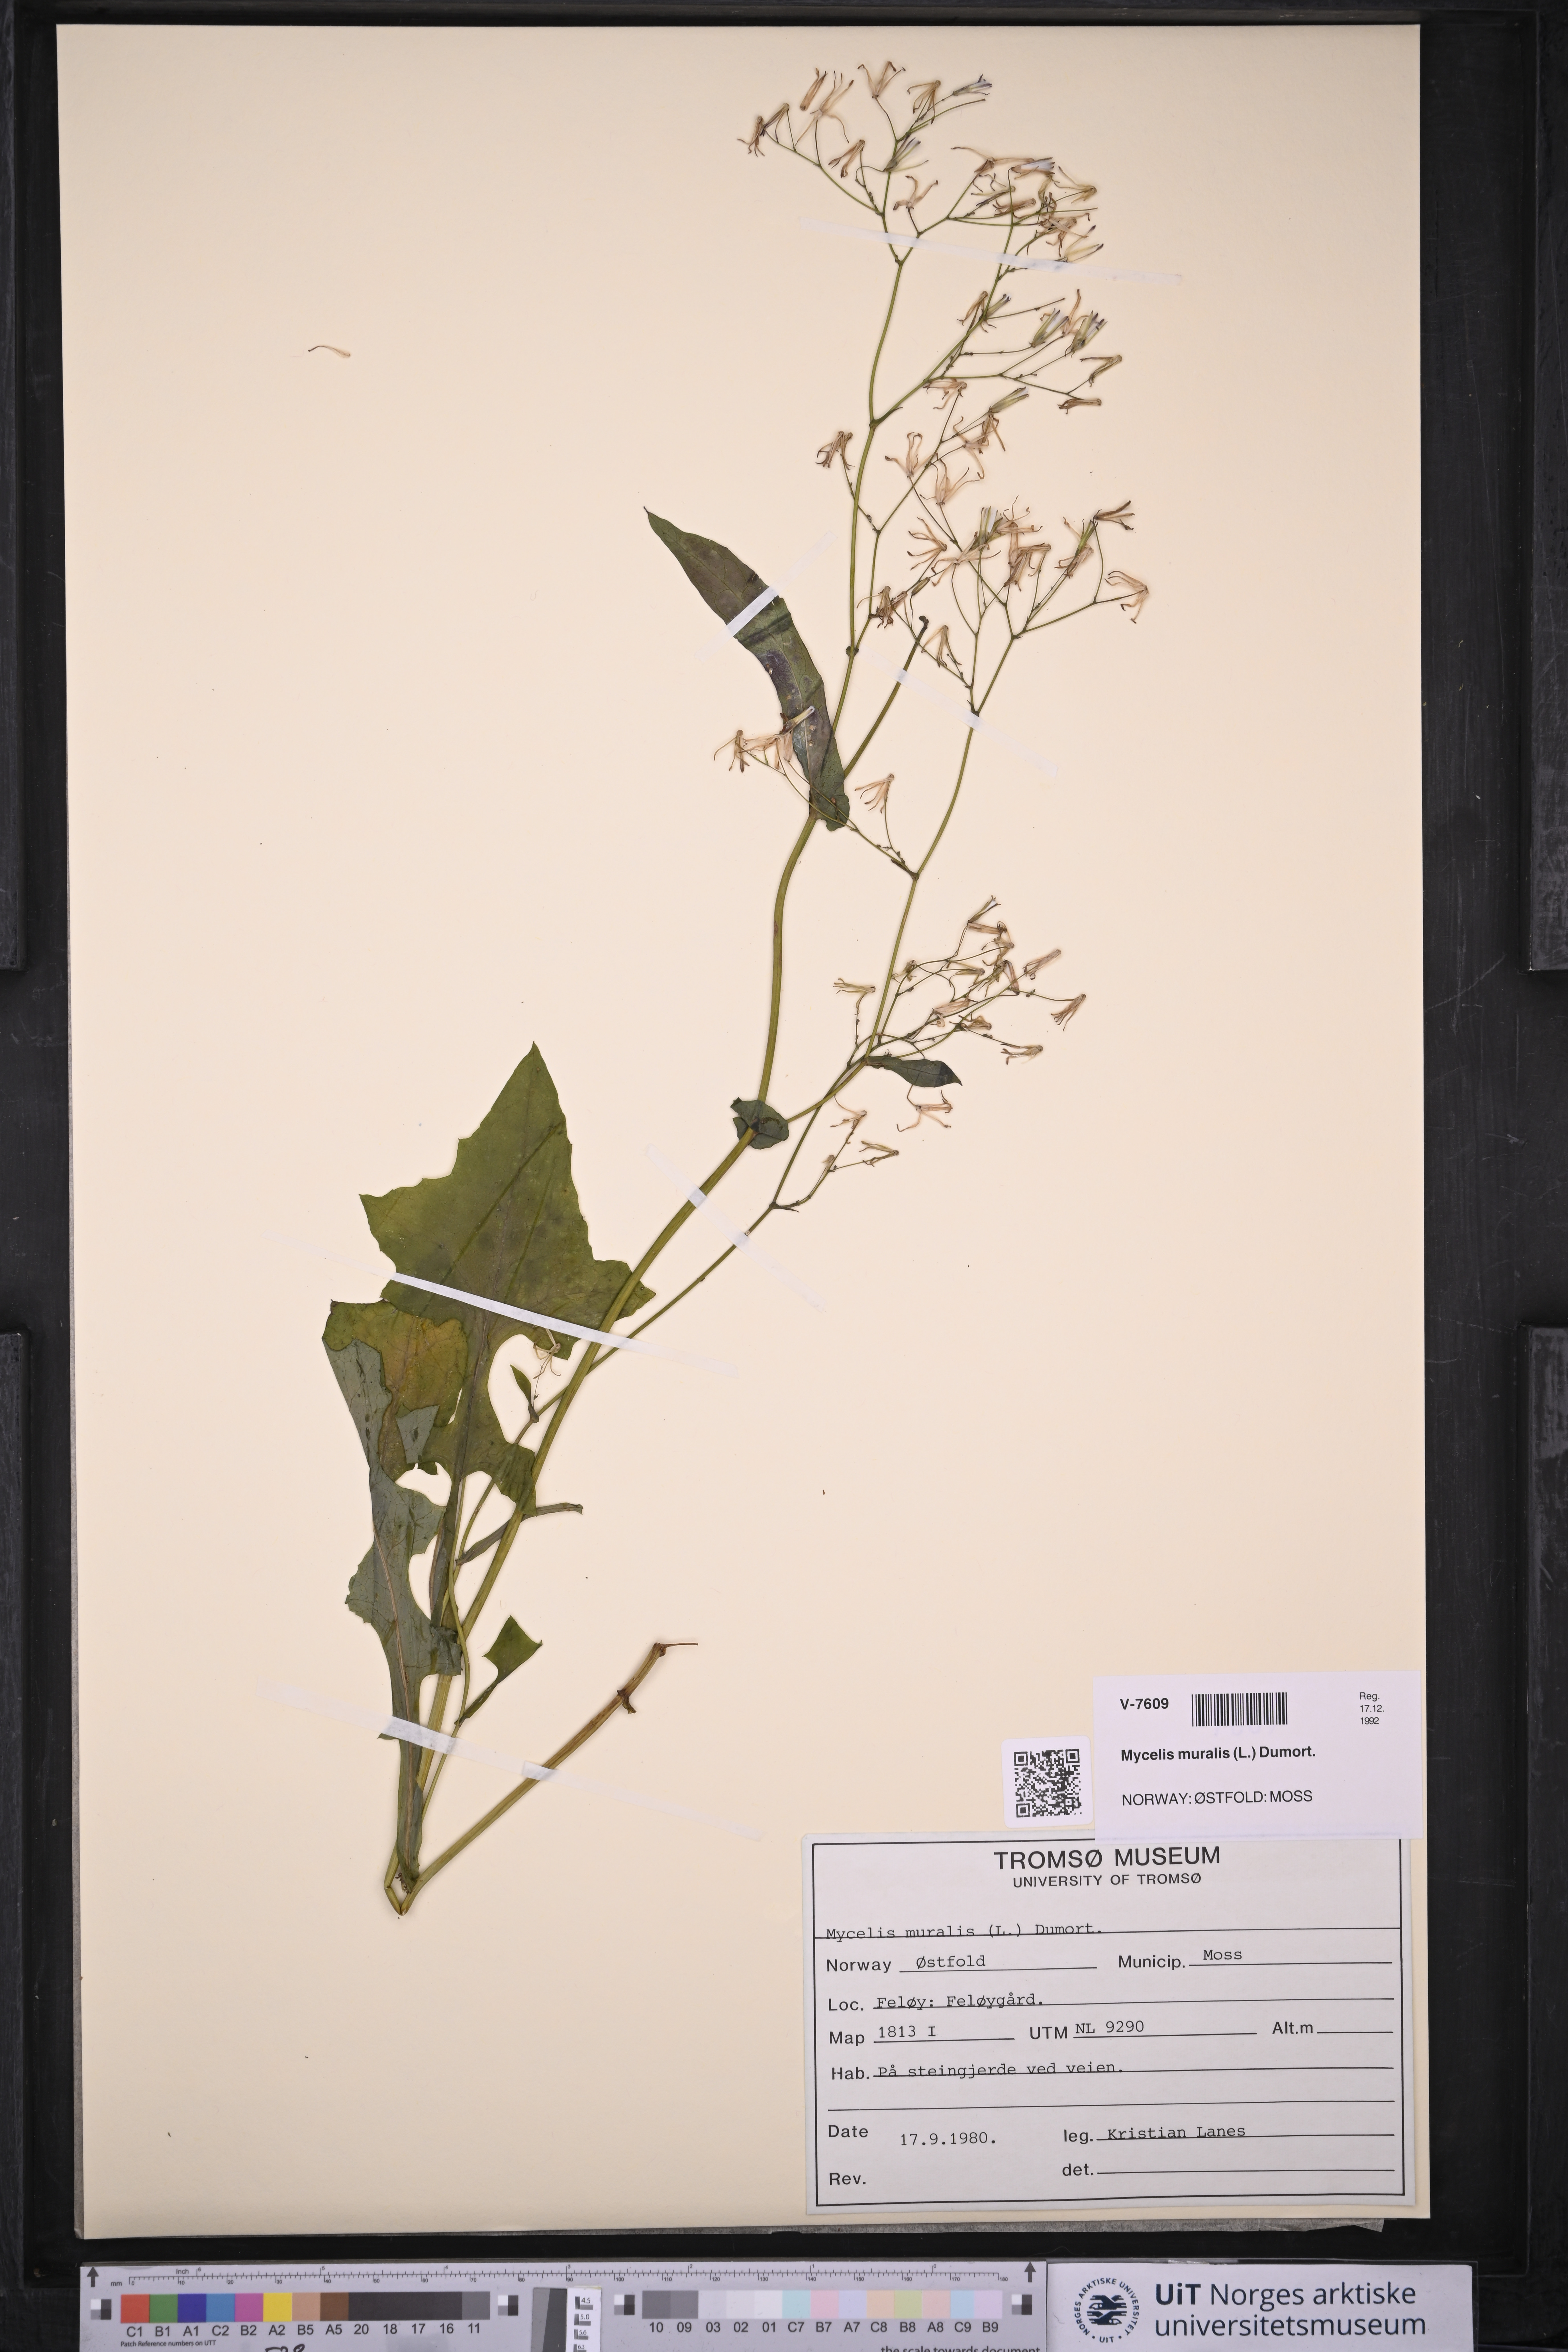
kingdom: Plantae
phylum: Tracheophyta
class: Magnoliopsida
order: Asterales
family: Asteraceae
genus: Mycelis
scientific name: Mycelis muralis
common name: Wall lettuce
